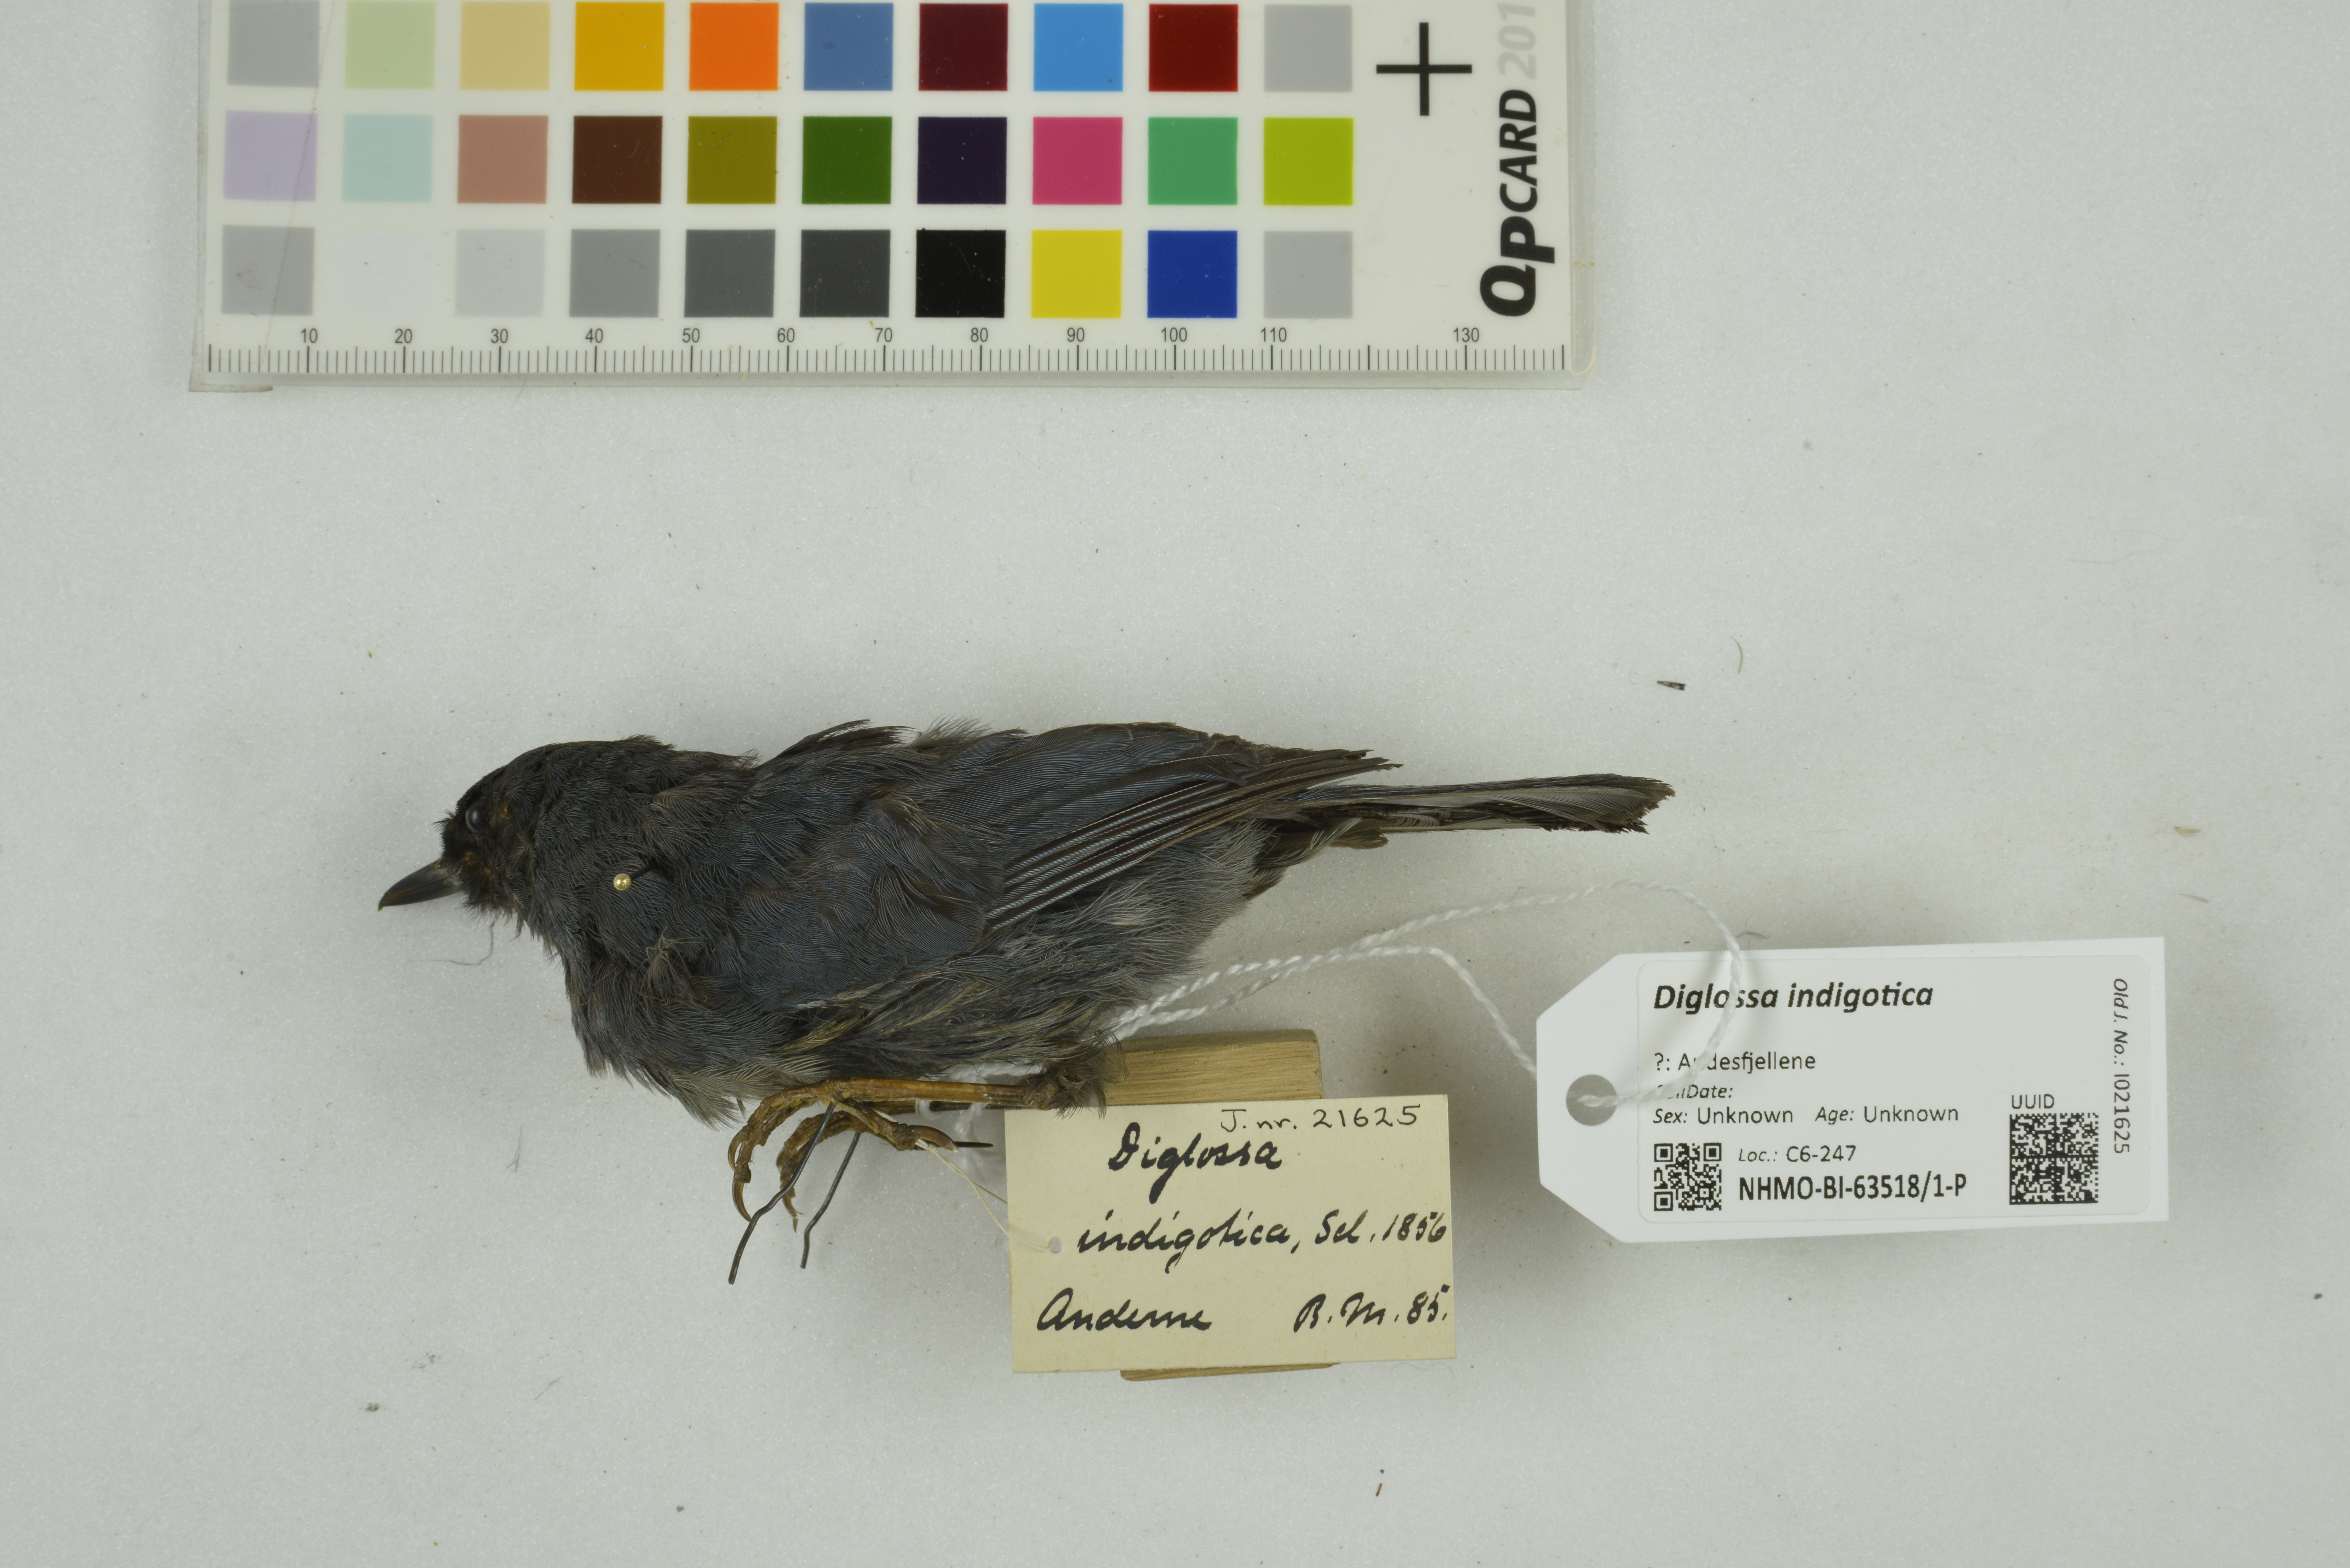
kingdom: Animalia
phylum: Chordata
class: Aves
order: Passeriformes
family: Thraupidae
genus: Diglossa
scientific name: Diglossa indigotica
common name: Indigo flowerpiercer
